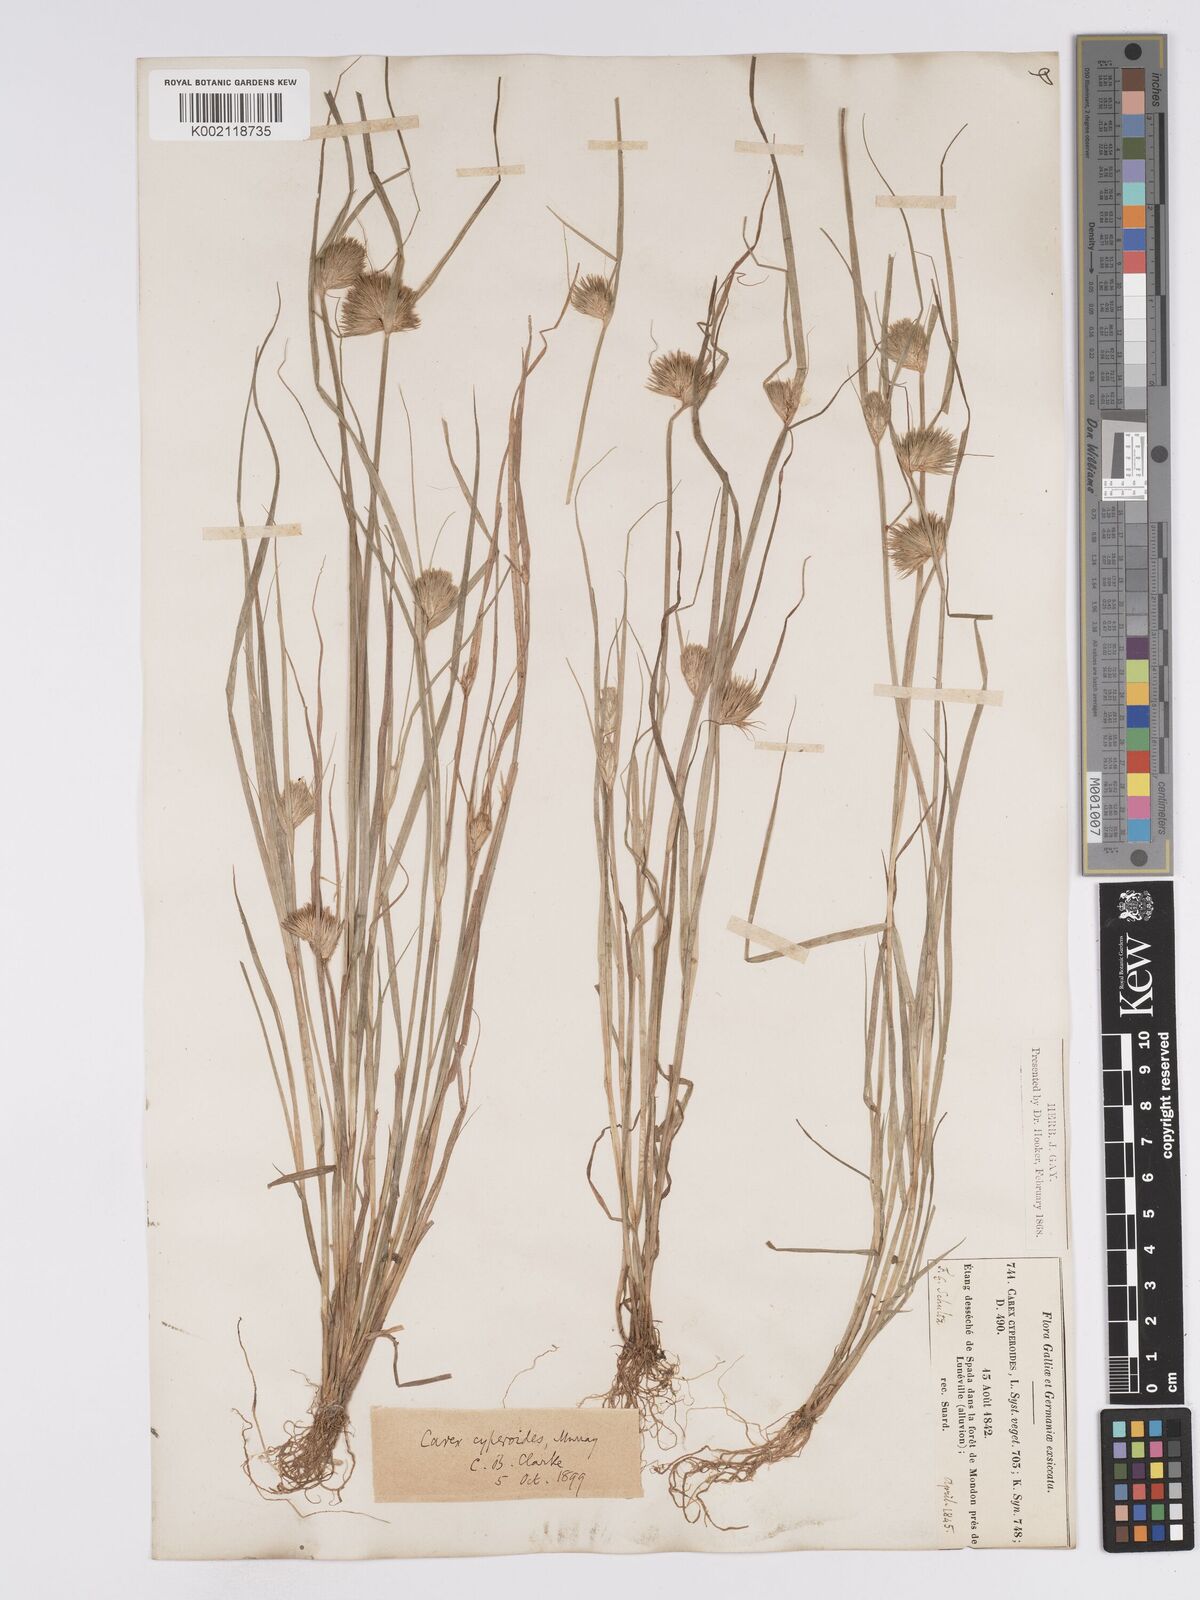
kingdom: Plantae
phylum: Tracheophyta
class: Liliopsida
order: Poales
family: Cyperaceae
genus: Carex
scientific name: Carex bohemica
